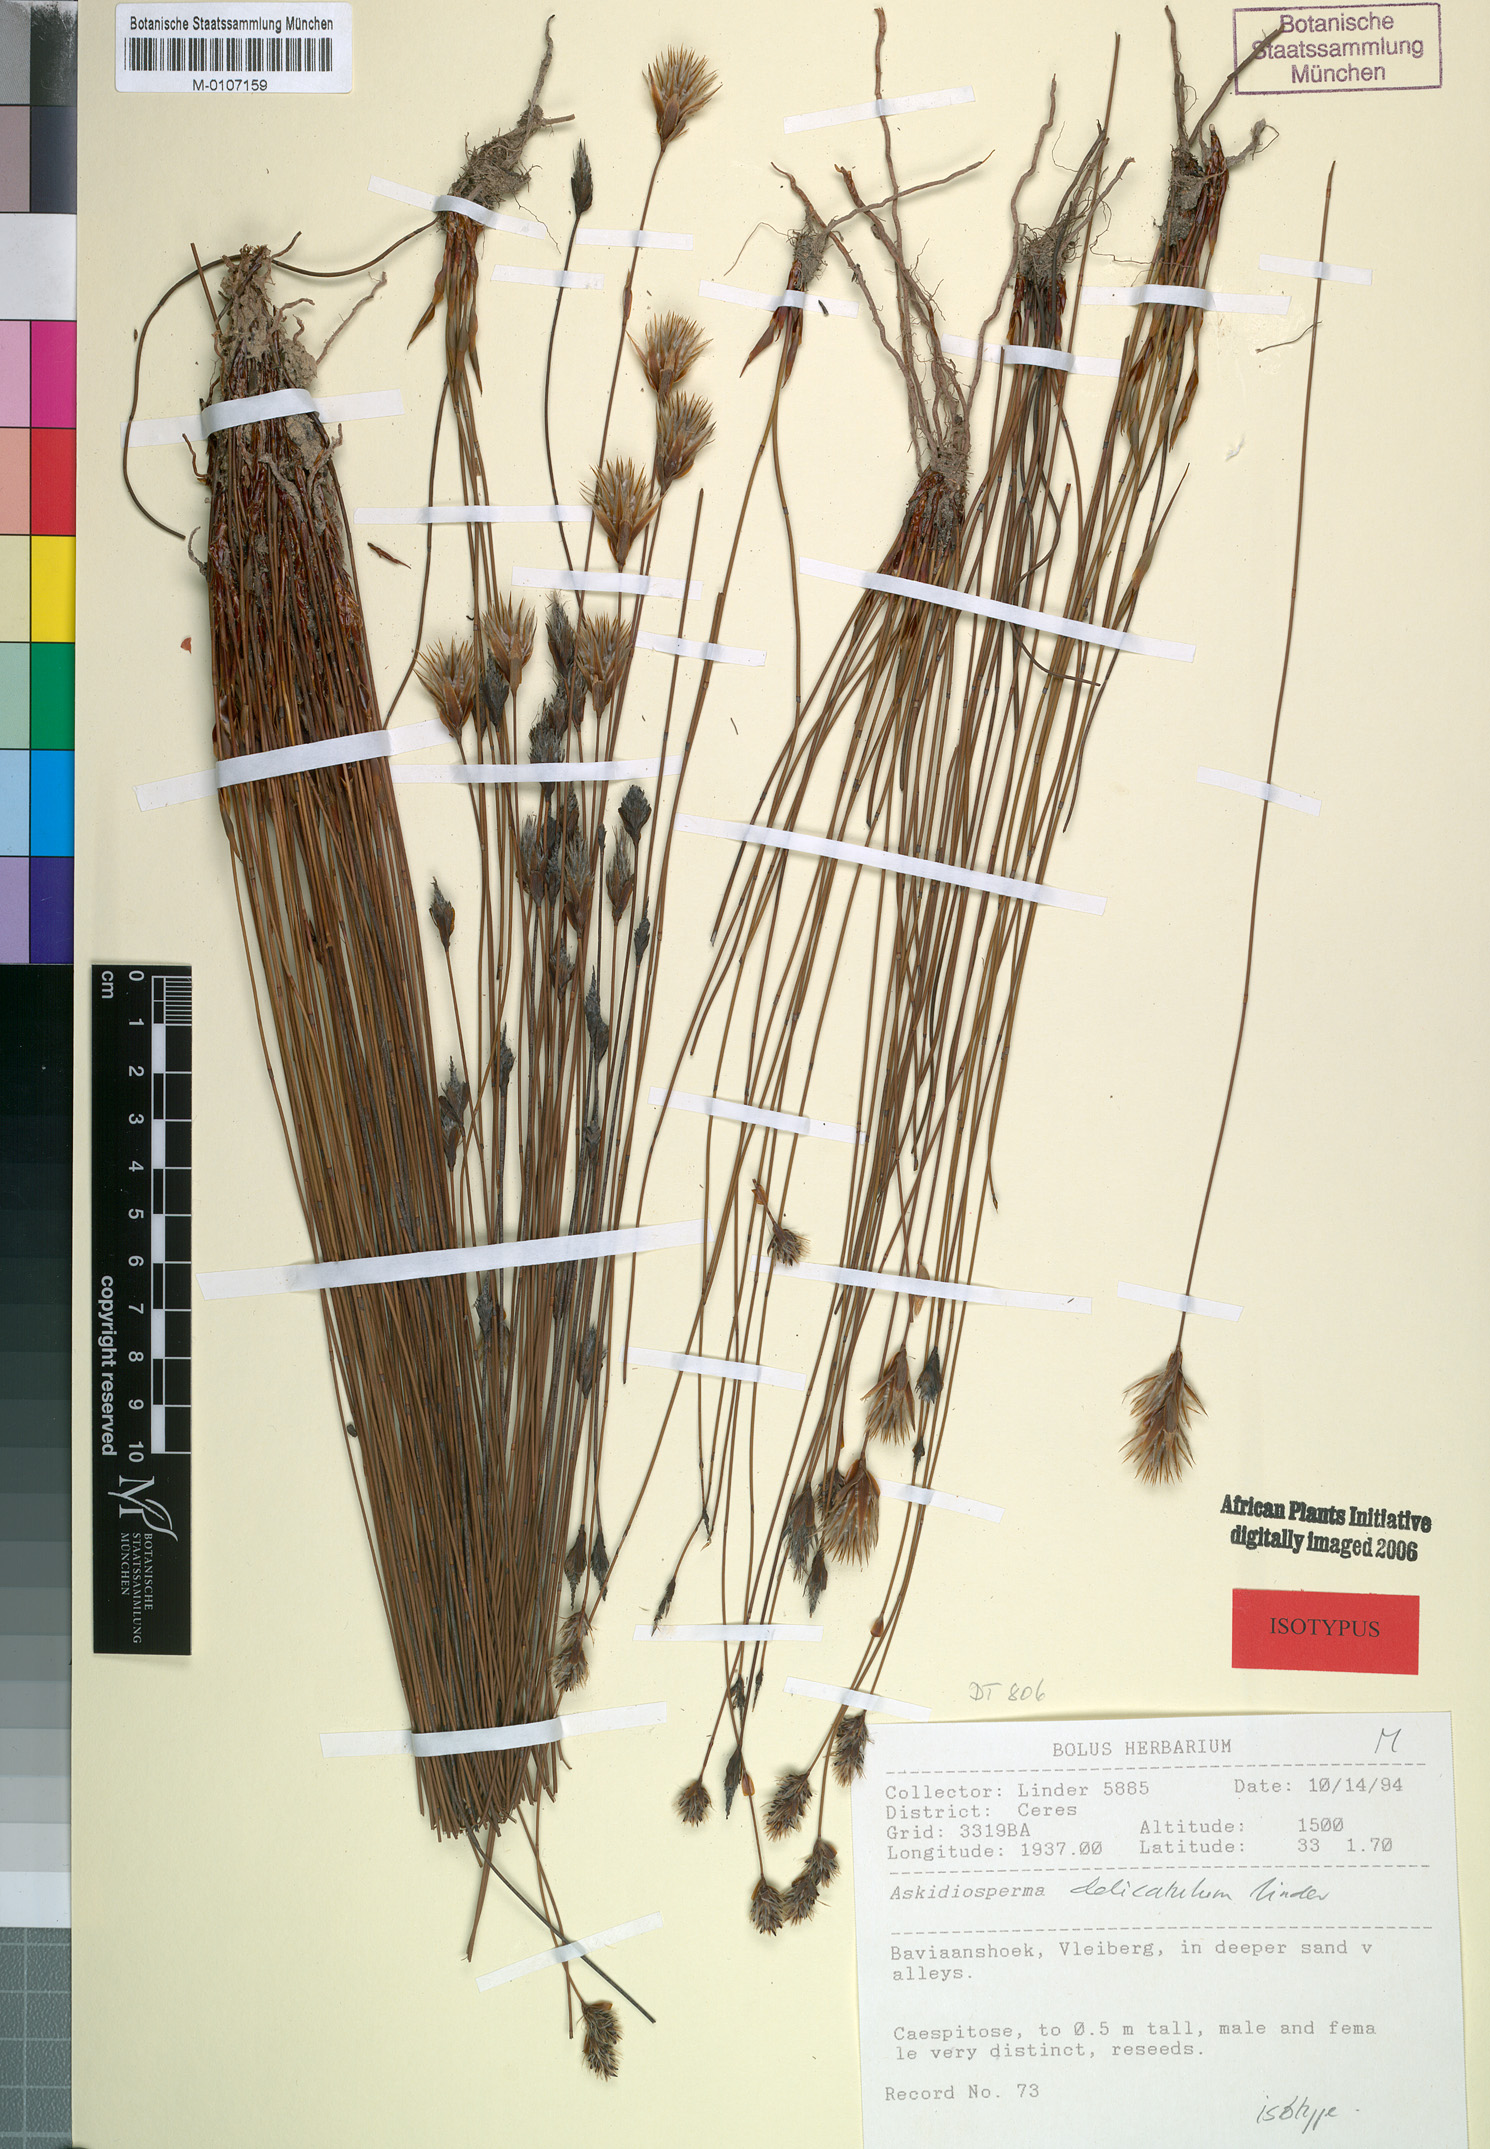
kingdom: Plantae
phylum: Tracheophyta
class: Liliopsida
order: Poales
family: Restionaceae
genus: Askidiosperma
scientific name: Askidiosperma delicatulum
